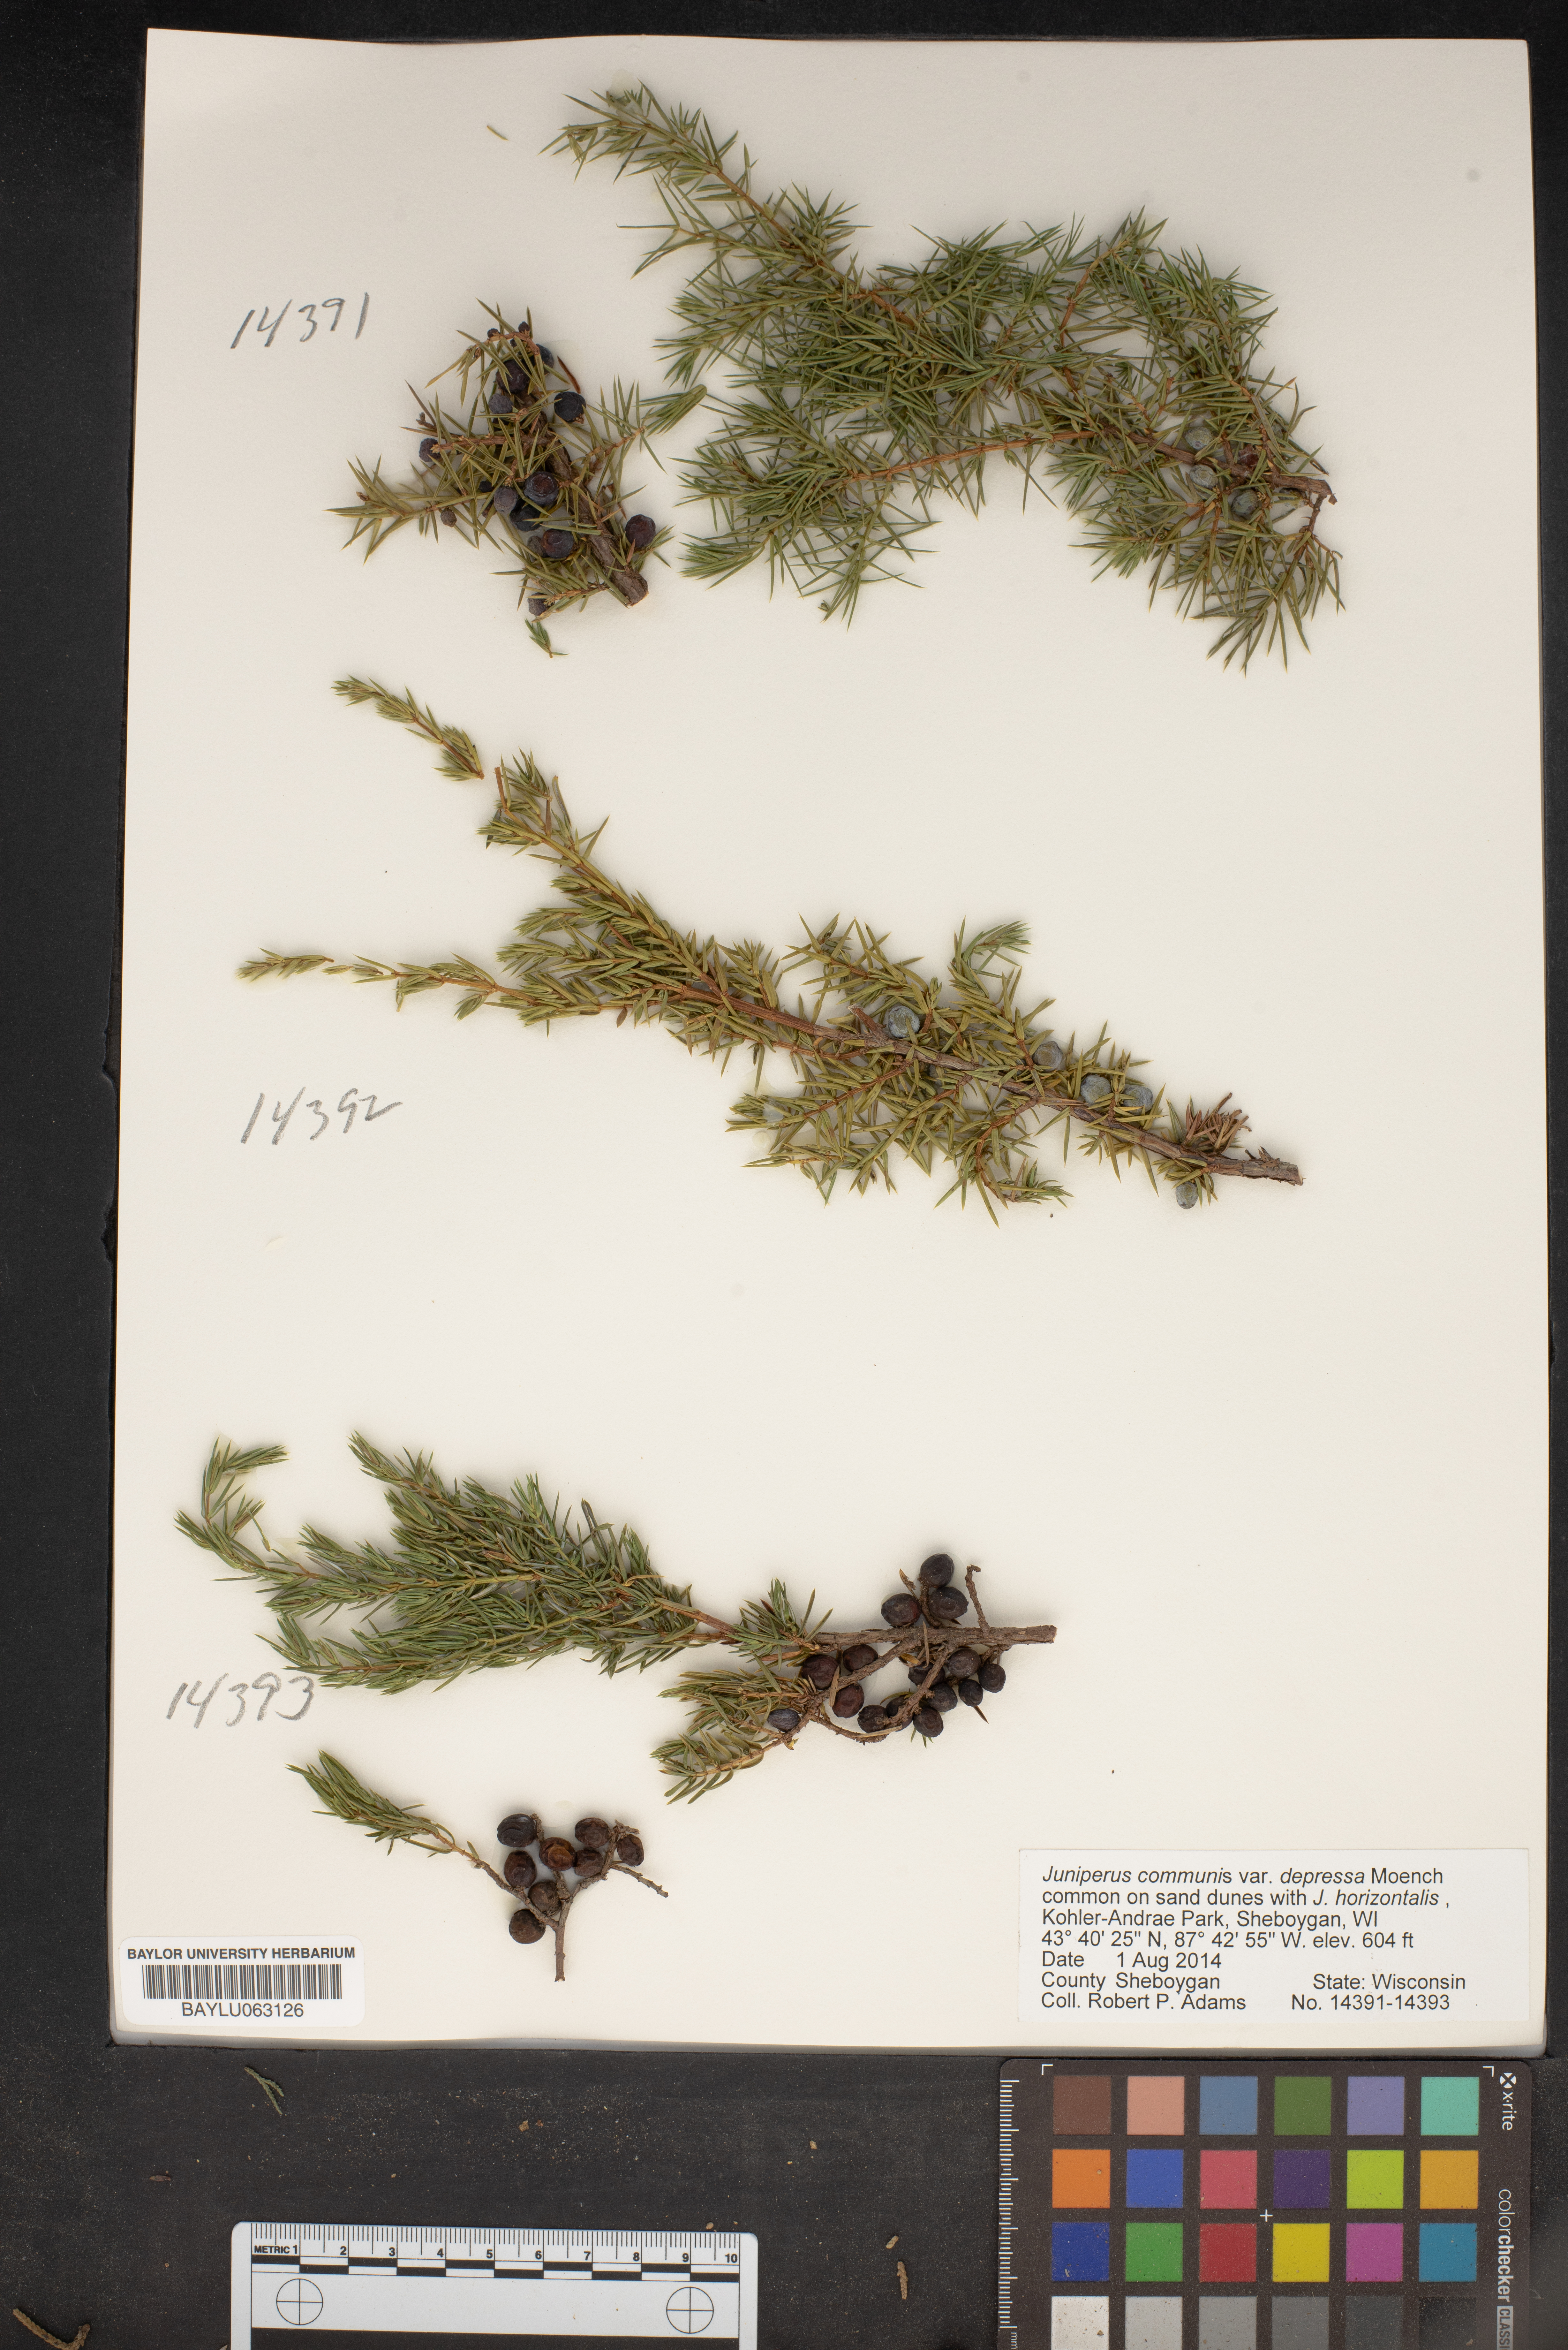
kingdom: Plantae
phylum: Tracheophyta
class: Pinopsida
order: Pinales
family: Cupressaceae
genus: Juniperus
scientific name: Juniperus communis
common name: Common juniper
